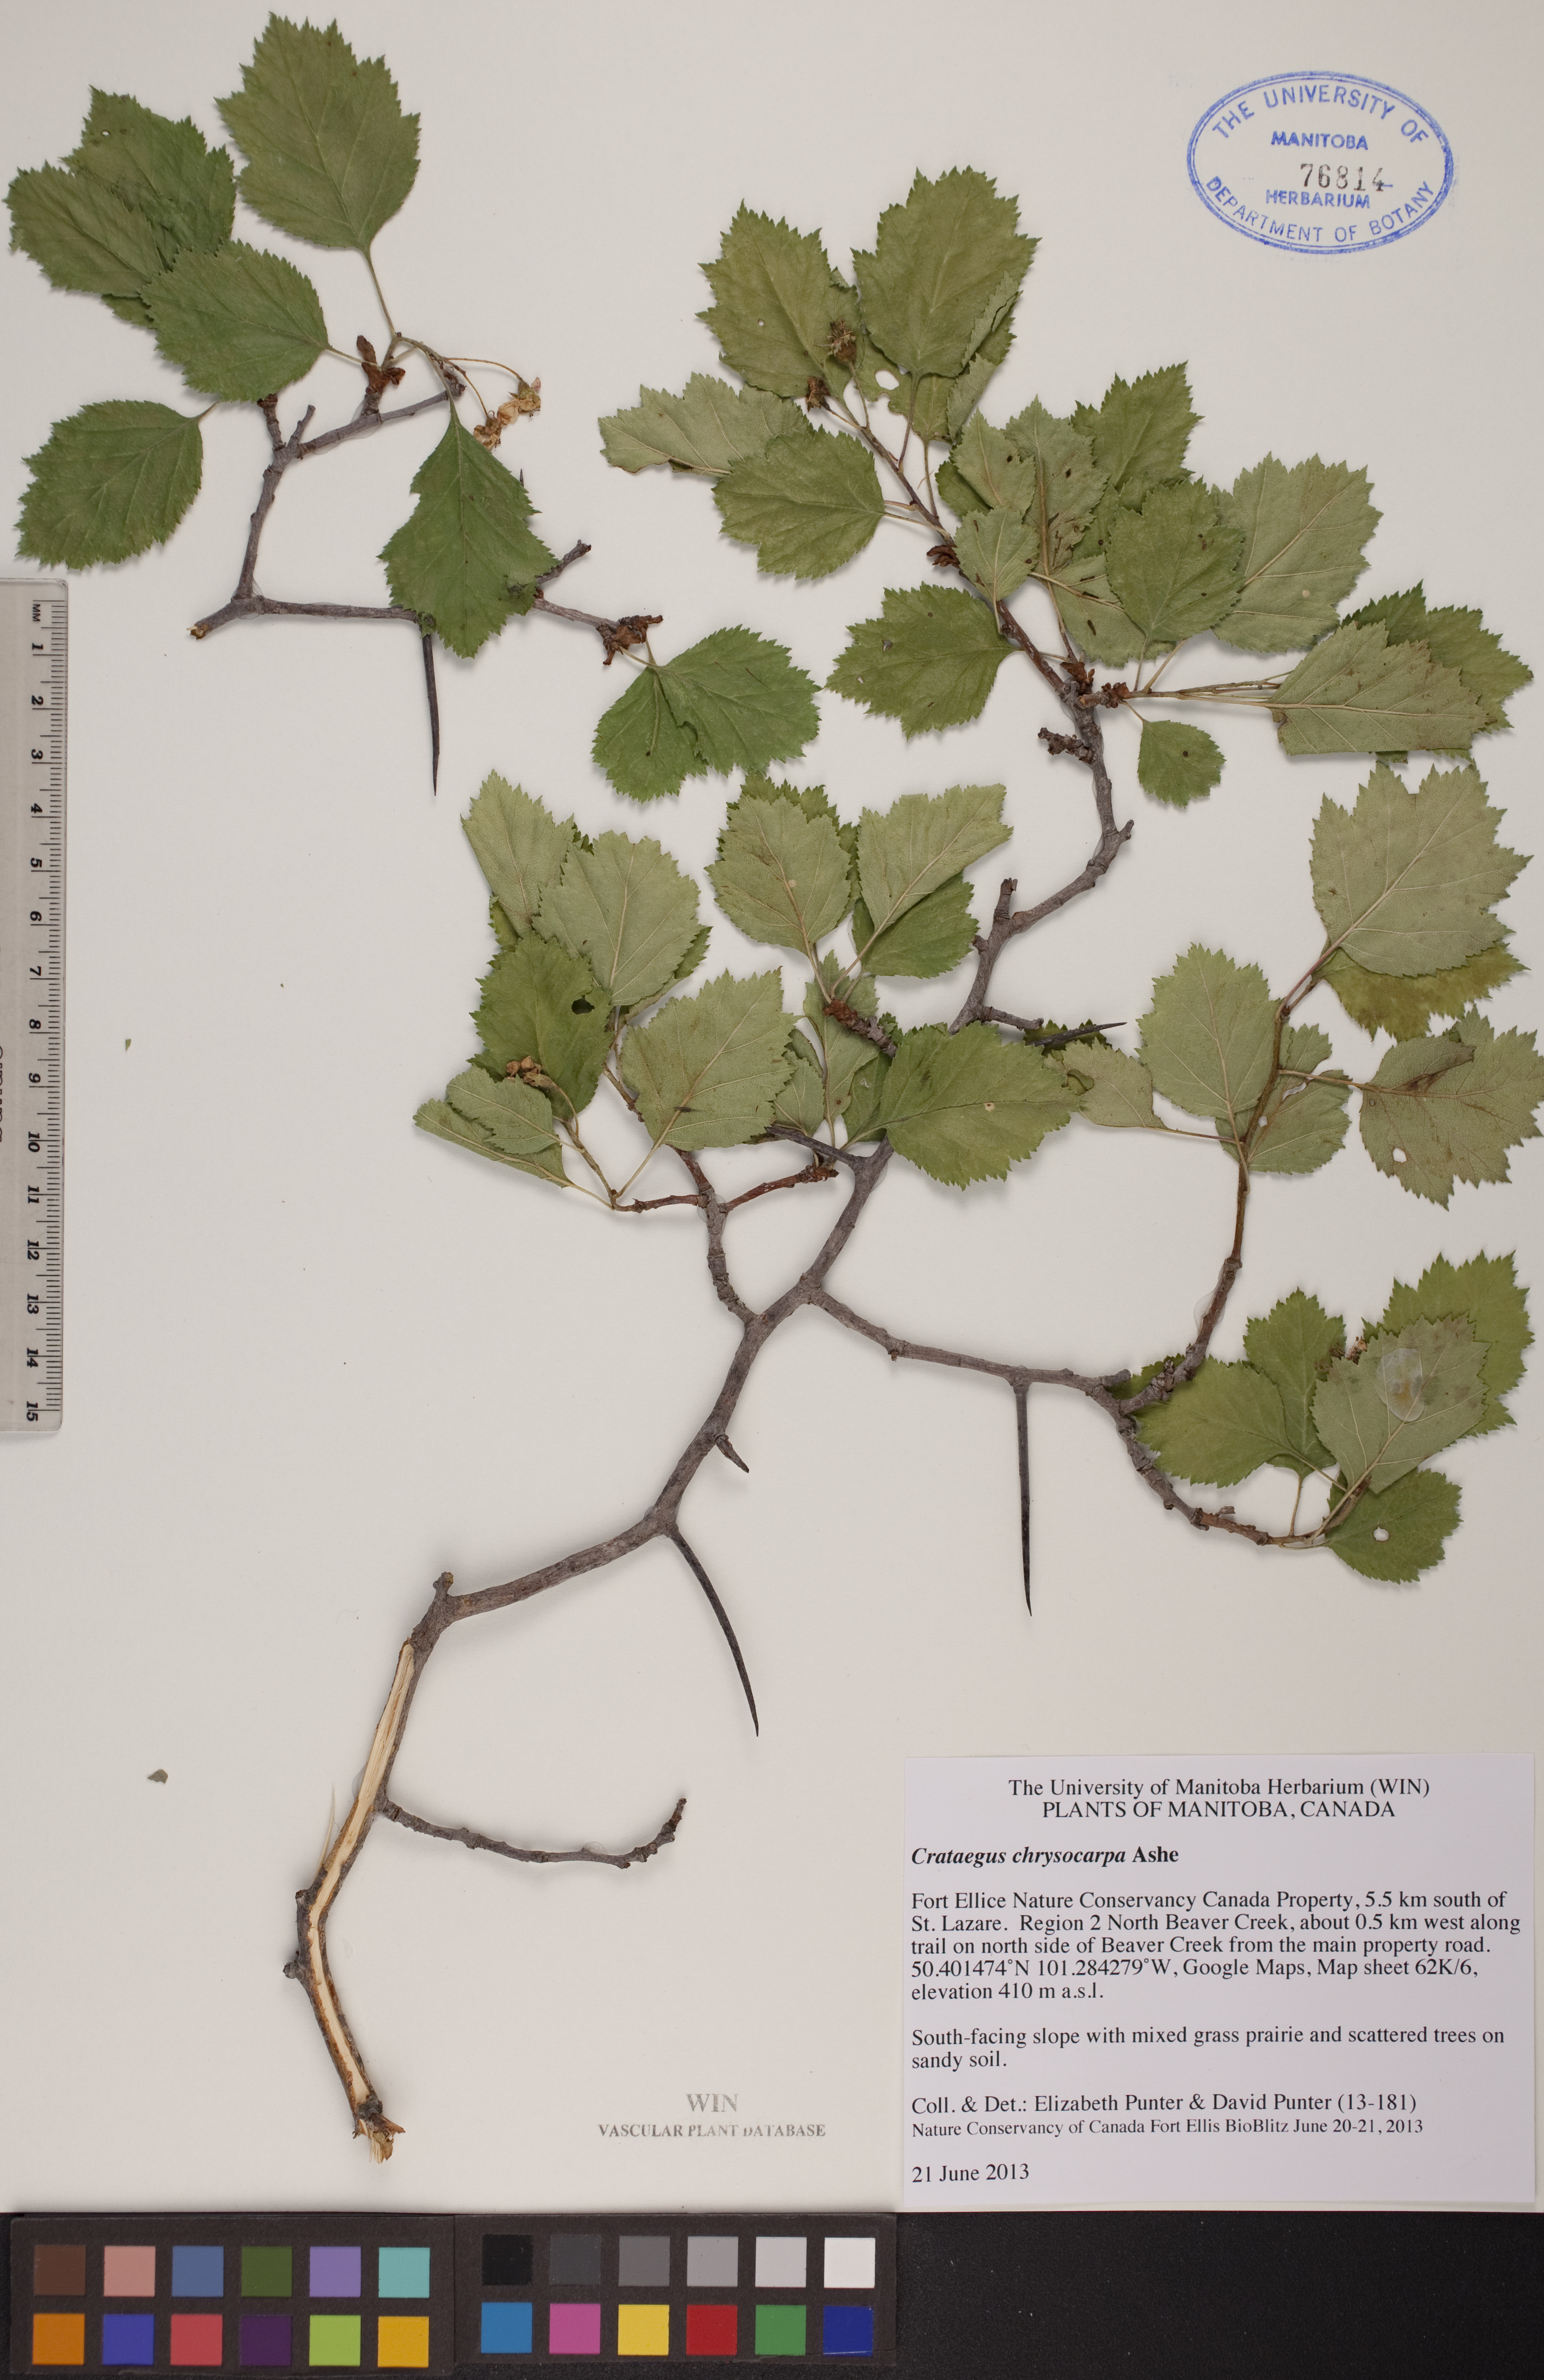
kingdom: Plantae
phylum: Tracheophyta
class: Magnoliopsida
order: Rosales
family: Rosaceae
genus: Crataegus
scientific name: Crataegus chrysocarpa
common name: Fire-berry hawthorn
